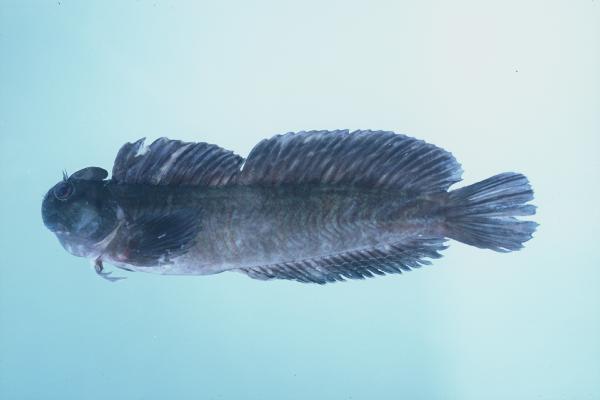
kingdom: Animalia
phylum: Chordata
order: Perciformes
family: Blenniidae
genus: Istiblennius
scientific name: Istiblennius edentulus
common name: Rippled rockskipper
